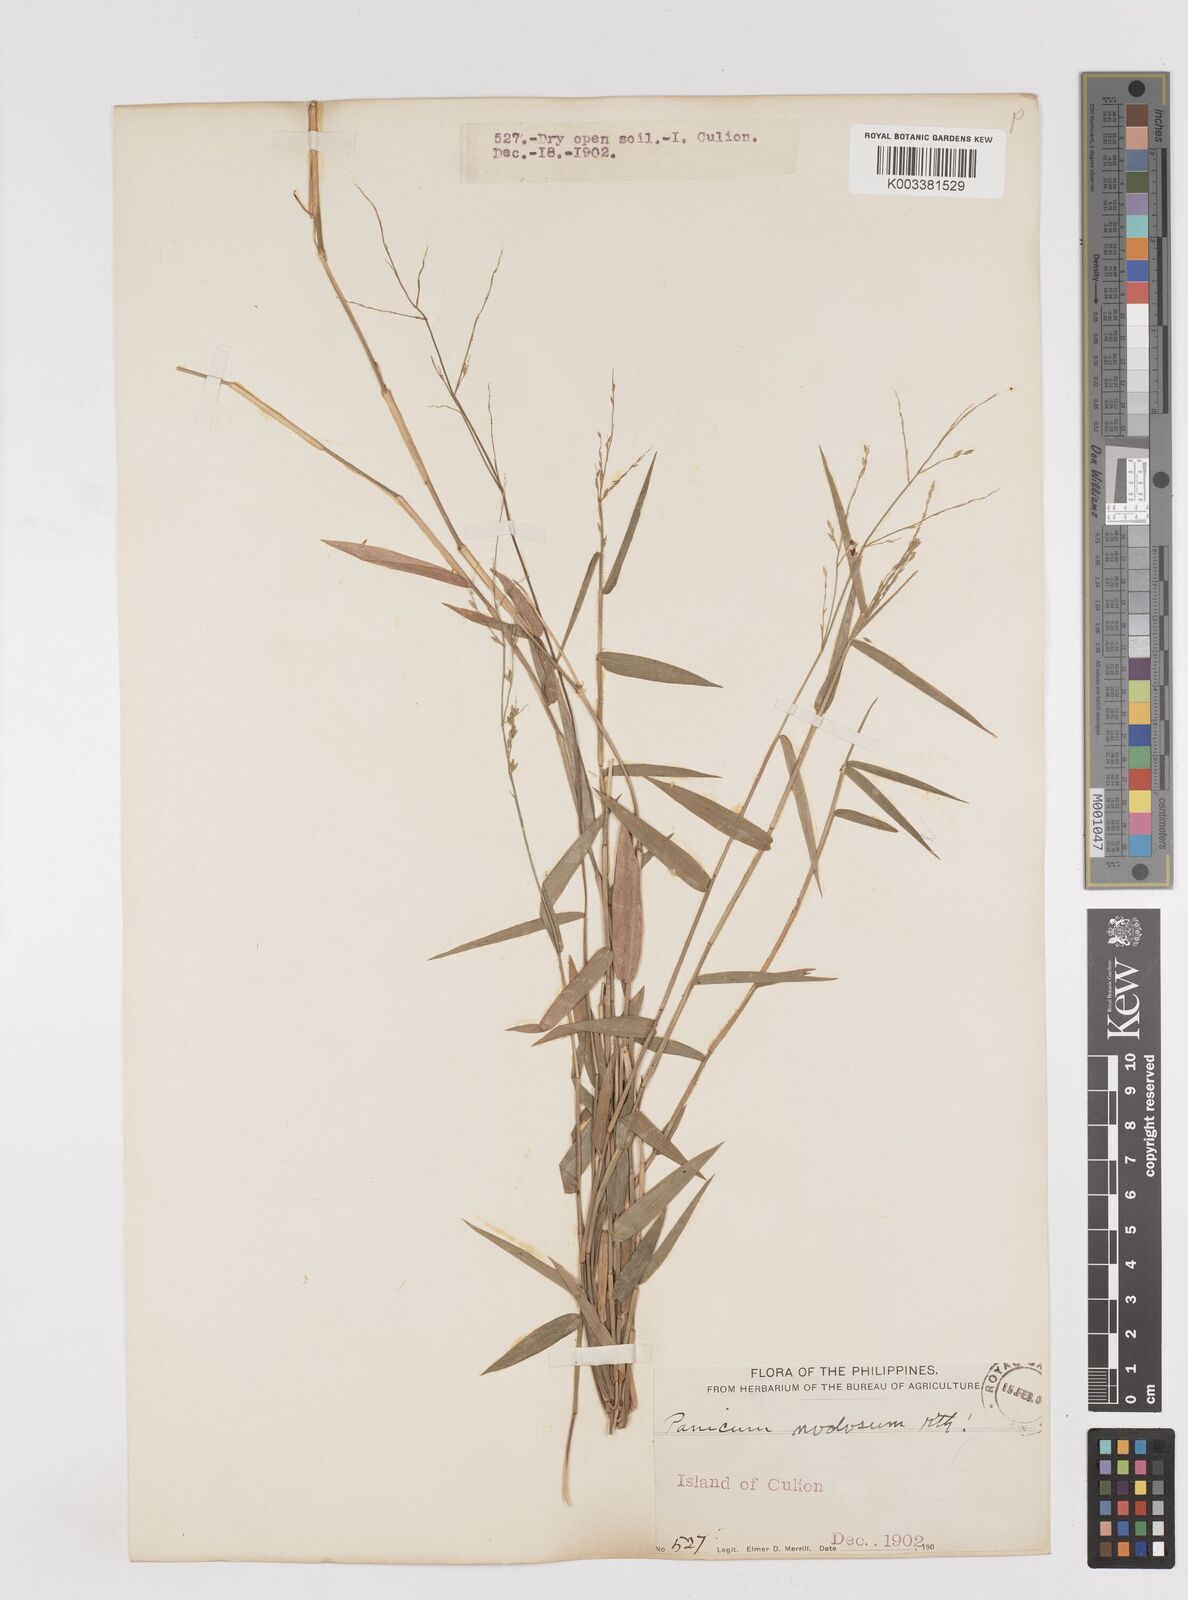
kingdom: Plantae
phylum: Tracheophyta
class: Liliopsida
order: Poales
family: Poaceae
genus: Ottochloa
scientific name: Ottochloa nodosa
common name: Slender-panic grass
